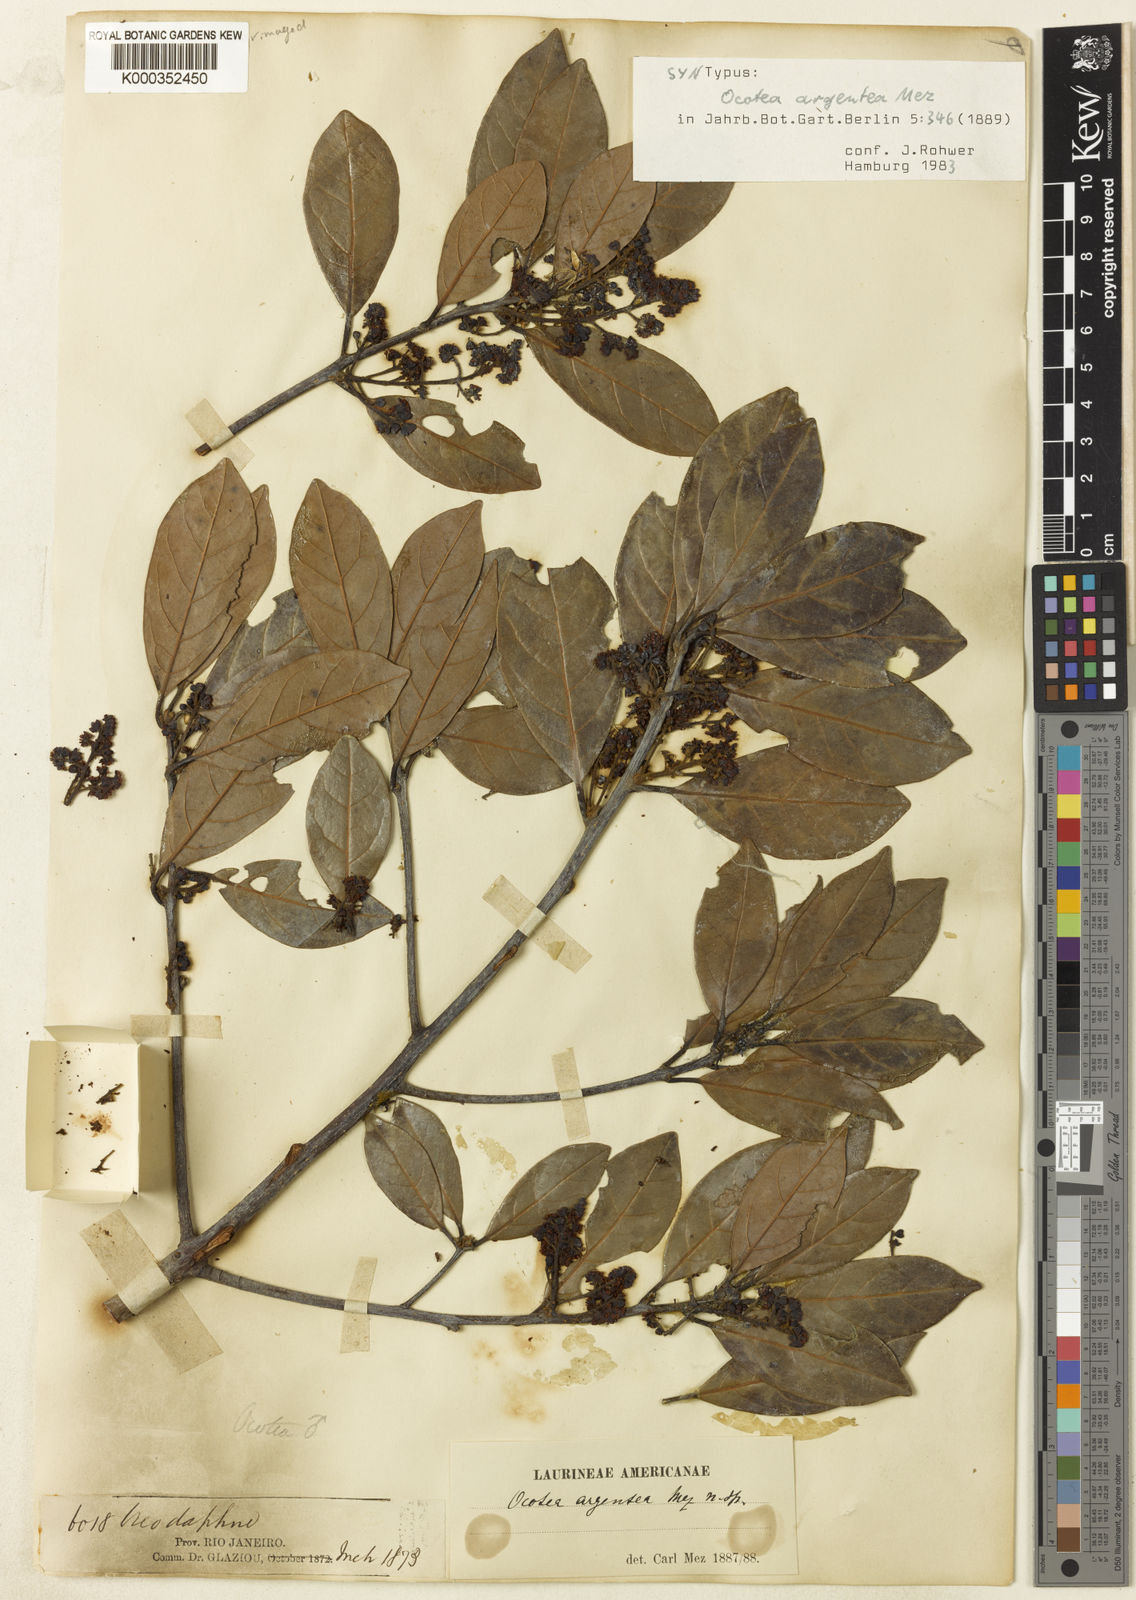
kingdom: Plantae
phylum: Tracheophyta
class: Magnoliopsida
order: Laurales
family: Lauraceae
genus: Ocotea
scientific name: Ocotea argentea
